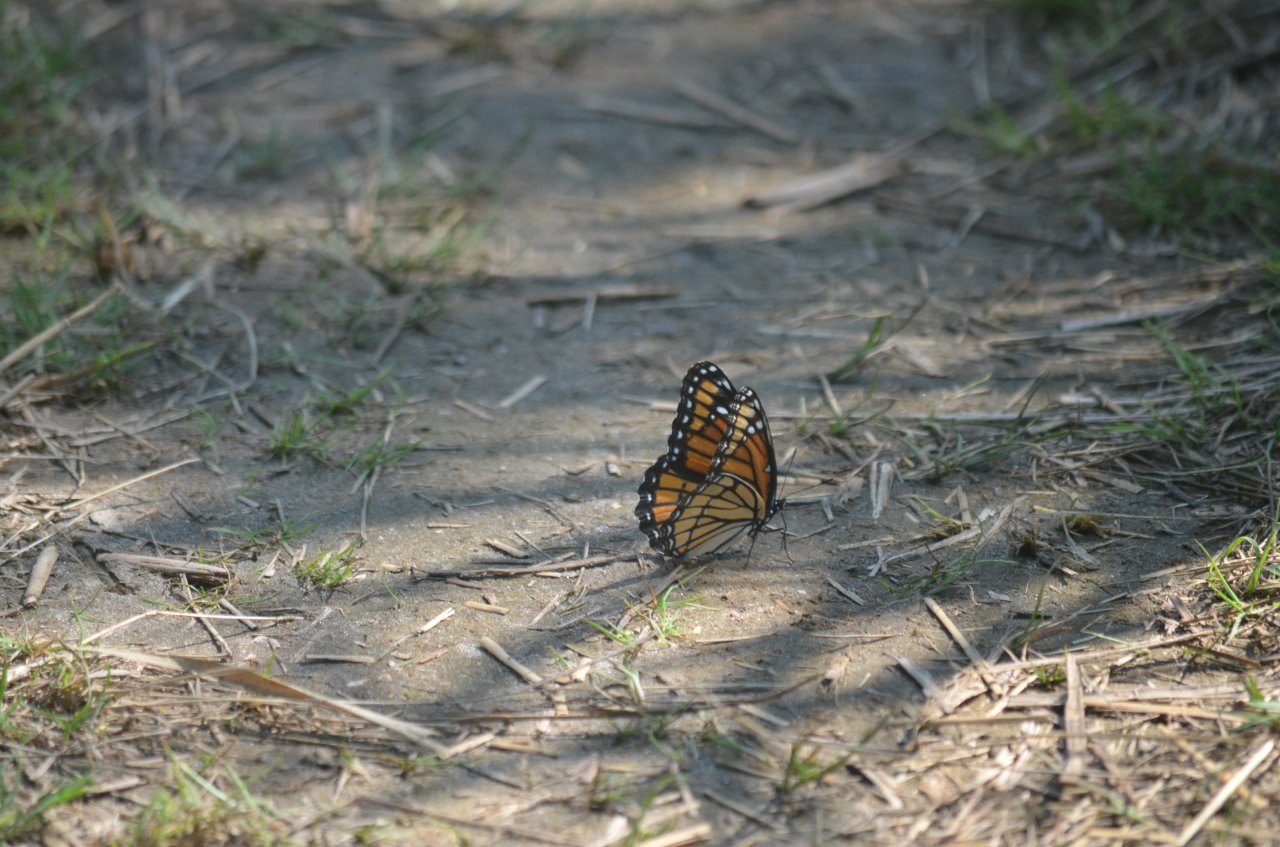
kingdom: Animalia
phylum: Arthropoda
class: Insecta
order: Lepidoptera
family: Nymphalidae
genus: Limenitis
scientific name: Limenitis archippus
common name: Viceroy
